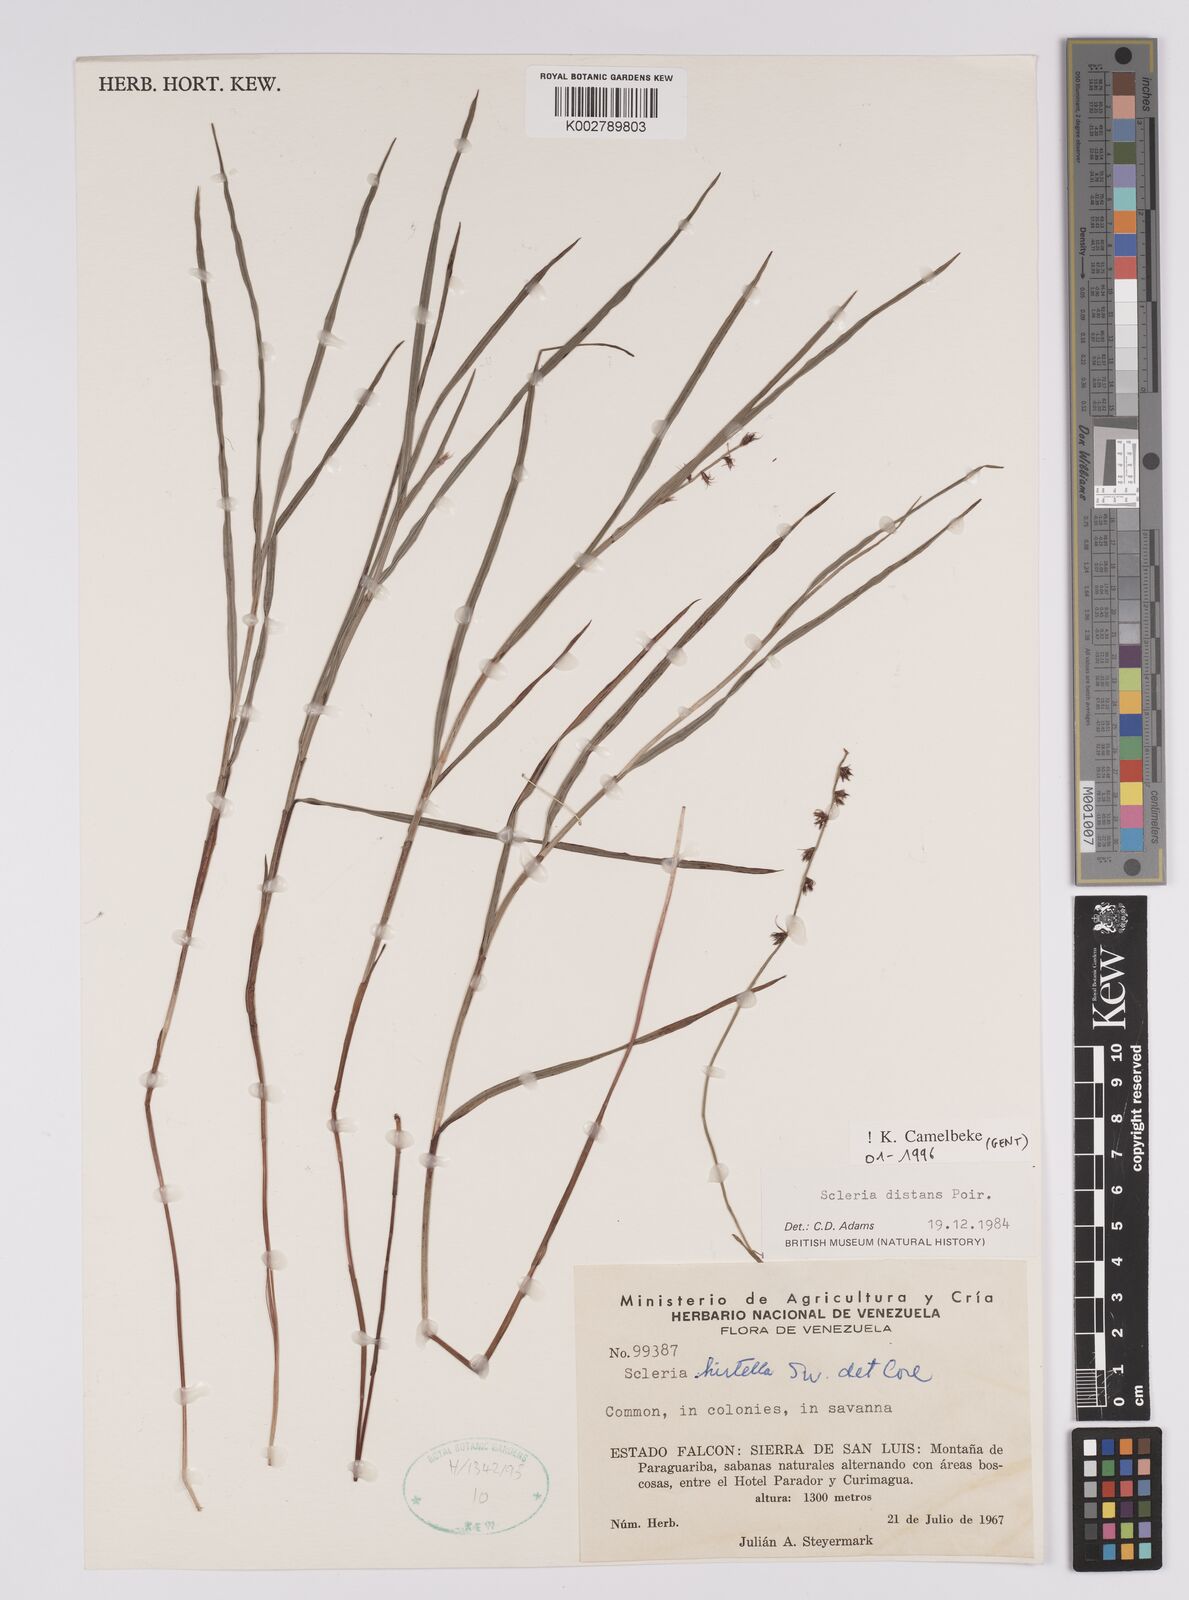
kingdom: Plantae
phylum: Tracheophyta
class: Liliopsida
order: Poales
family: Cyperaceae
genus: Scleria
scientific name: Scleria verticillata
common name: Low nutrush
